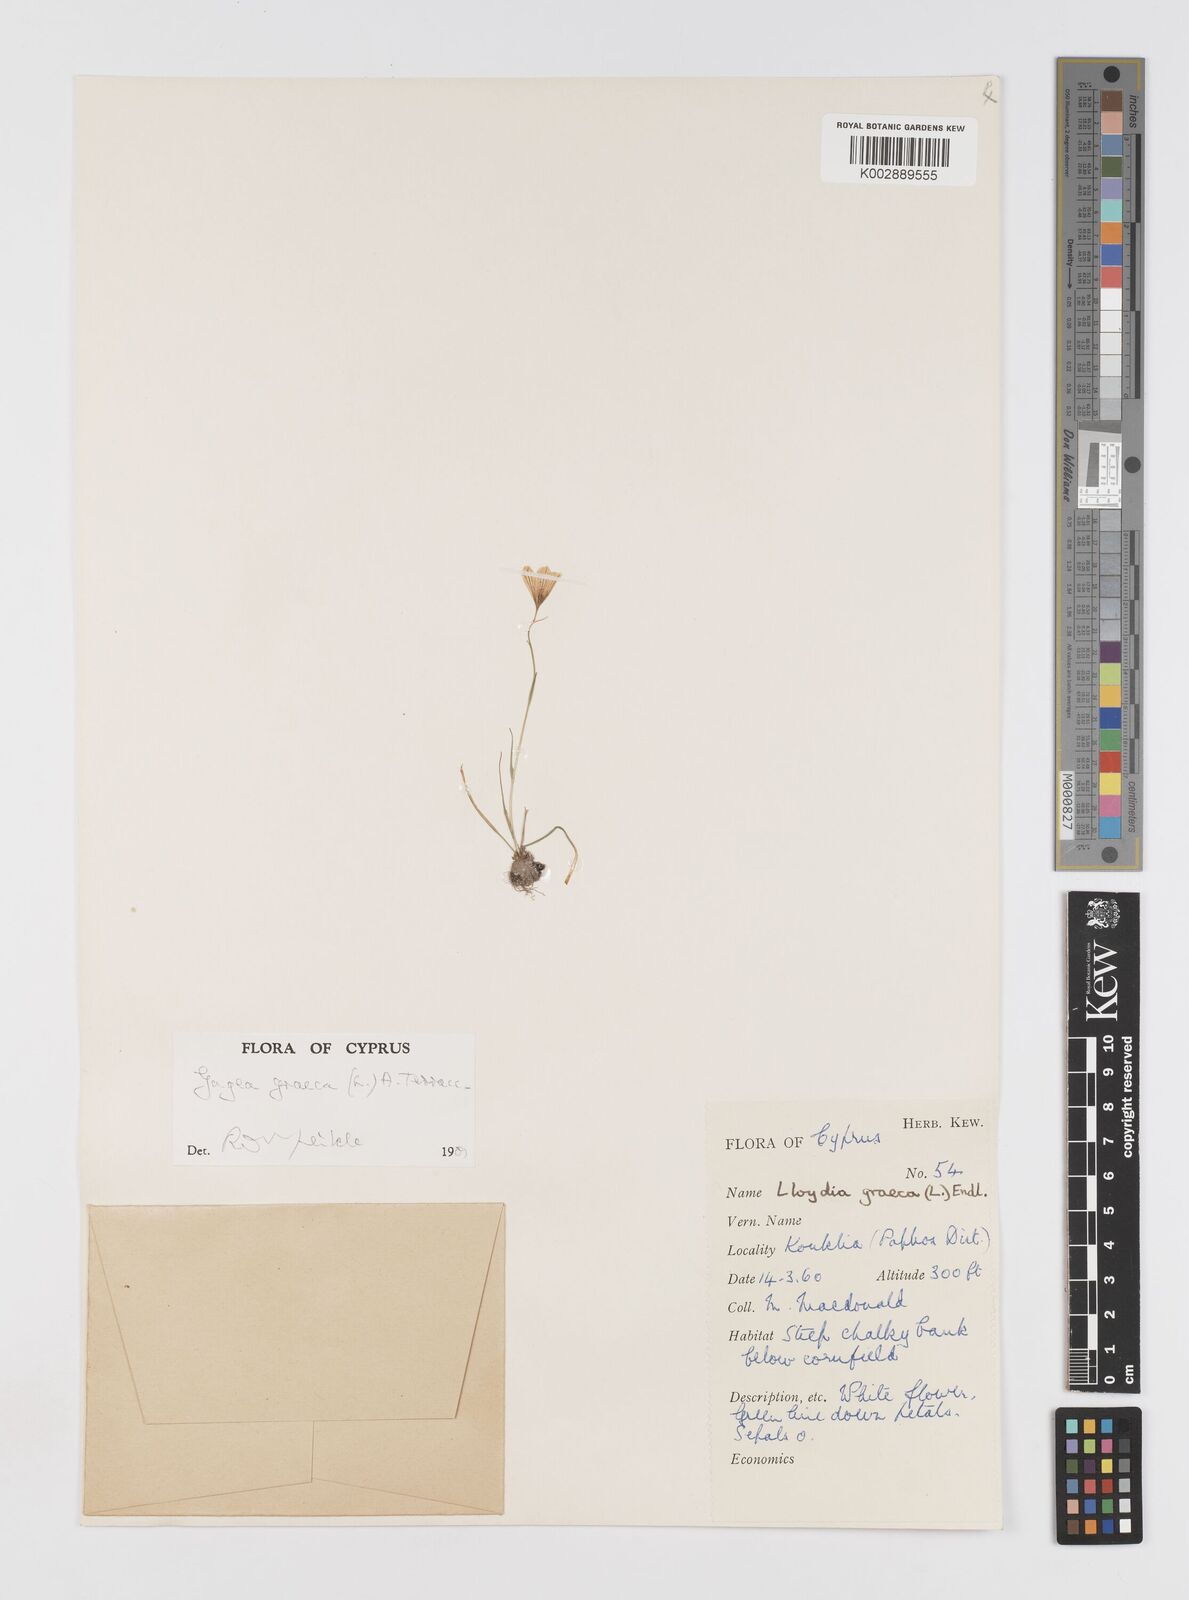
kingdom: Plantae
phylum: Tracheophyta
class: Liliopsida
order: Liliales
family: Liliaceae
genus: Gagea
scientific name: Gagea graeca
